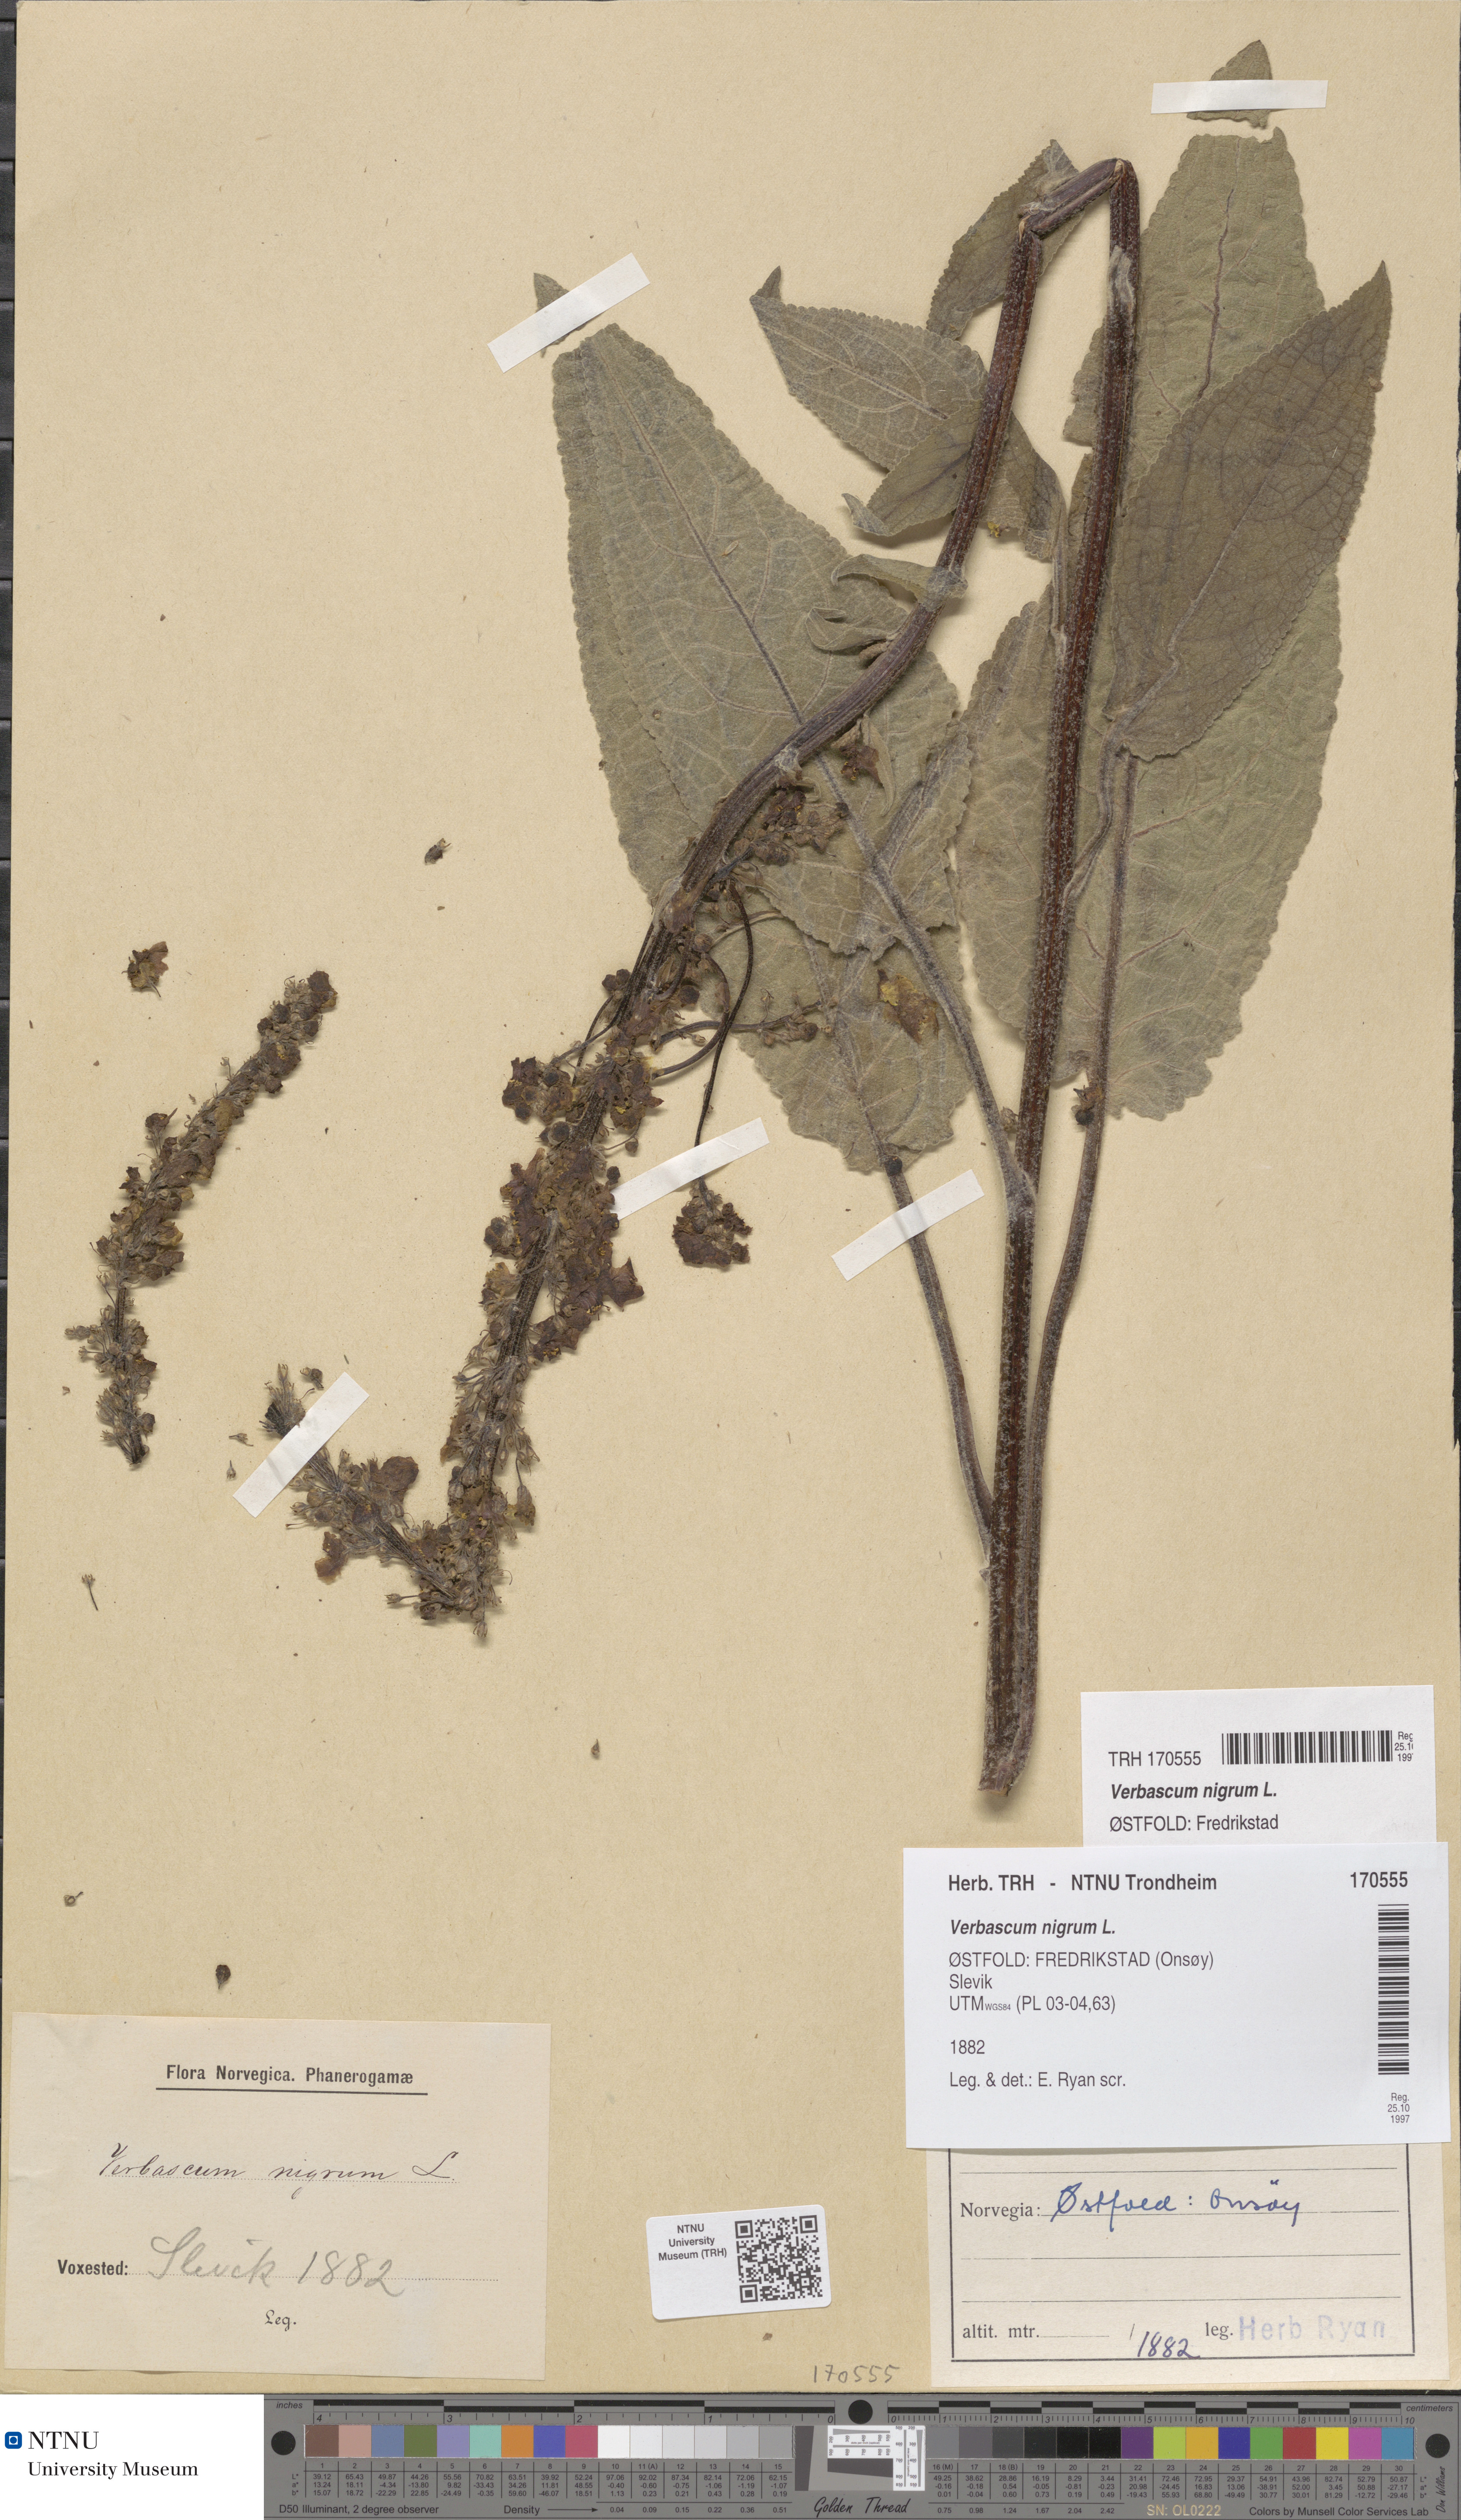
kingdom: Plantae
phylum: Tracheophyta
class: Magnoliopsida
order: Lamiales
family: Scrophulariaceae
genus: Verbascum
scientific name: Verbascum nigrum
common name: Dark mullein
